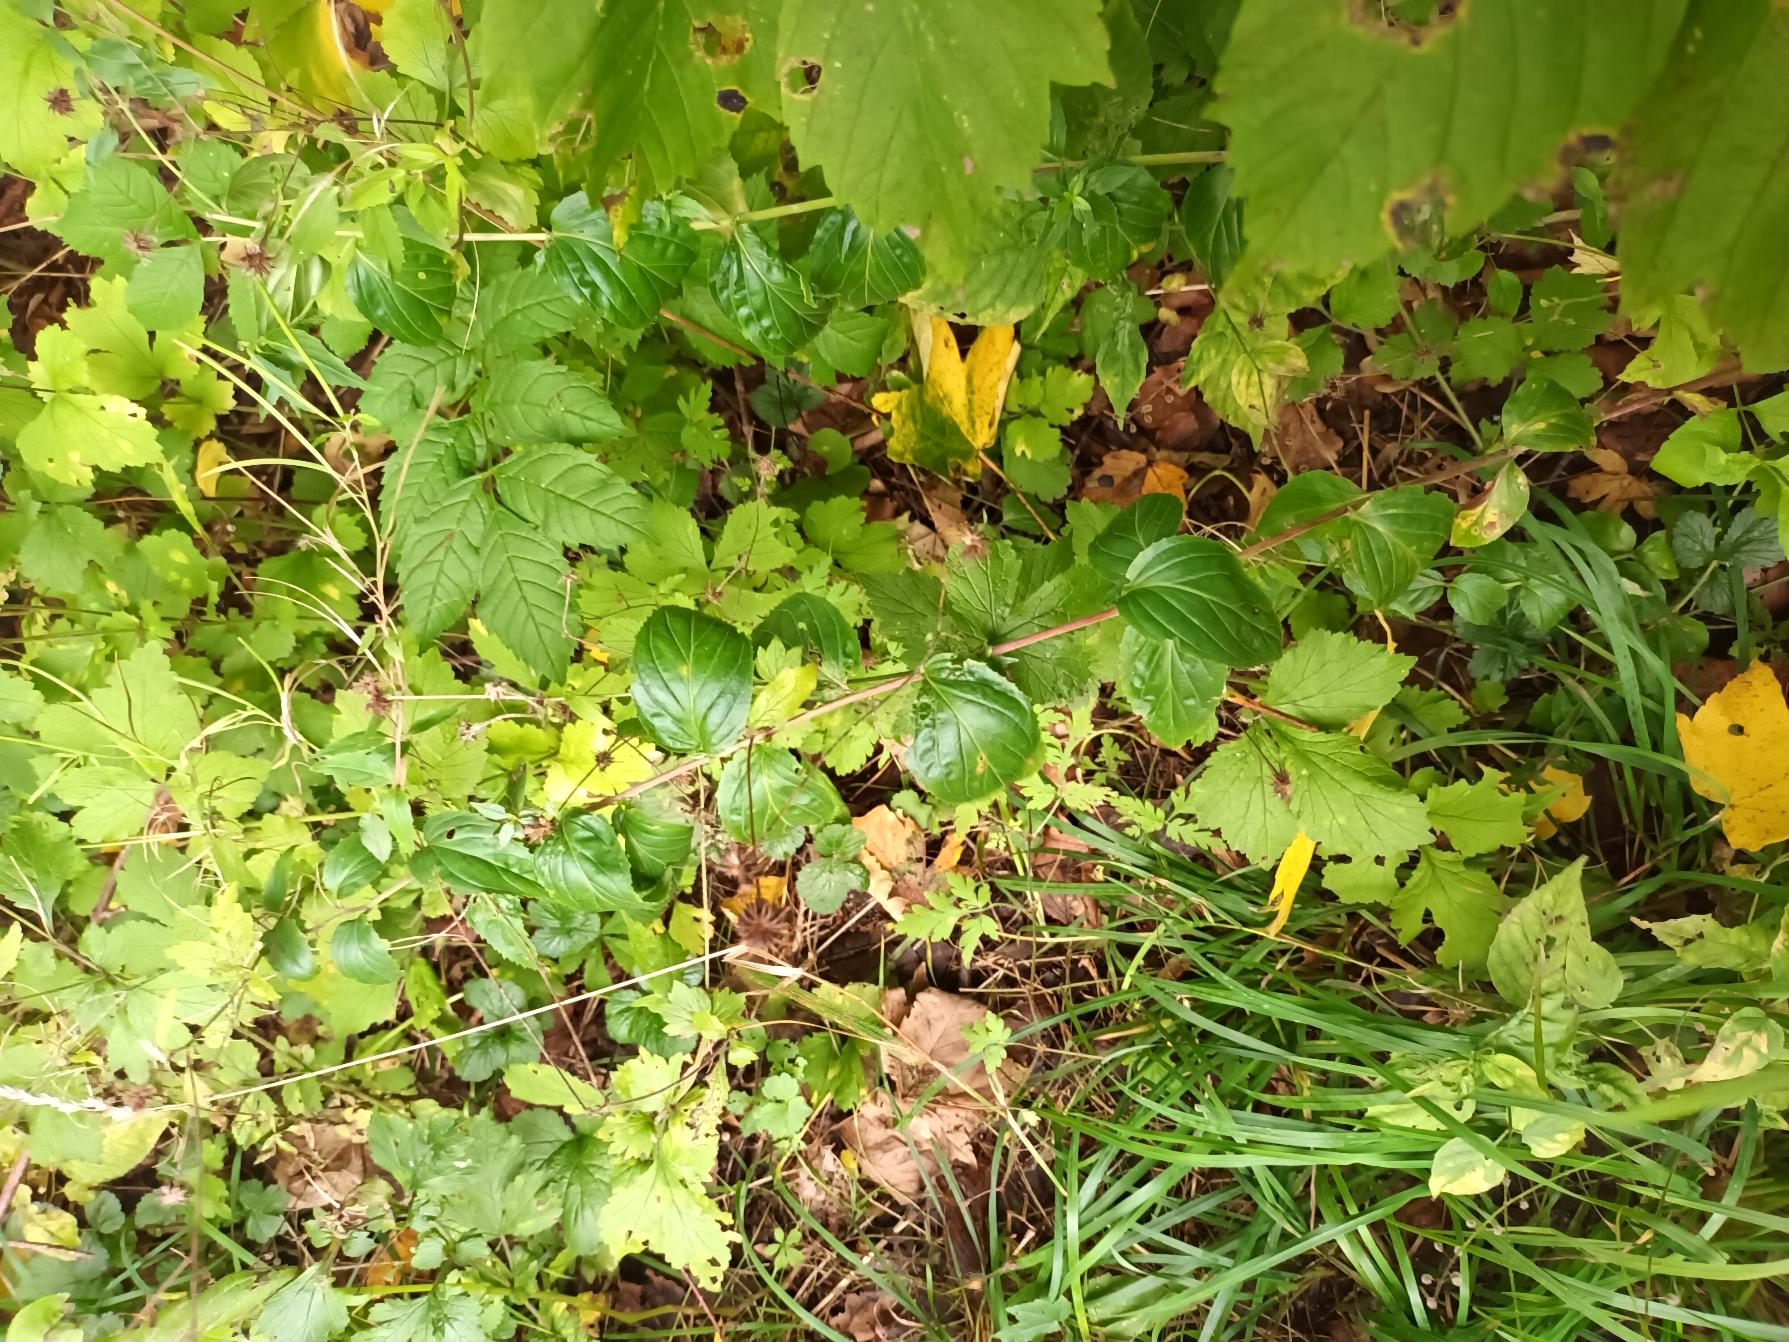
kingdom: Plantae
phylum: Tracheophyta
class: Magnoliopsida
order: Myrtales
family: Onagraceae
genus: Epilobium
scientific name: Epilobium montanum
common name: Glat dueurt
